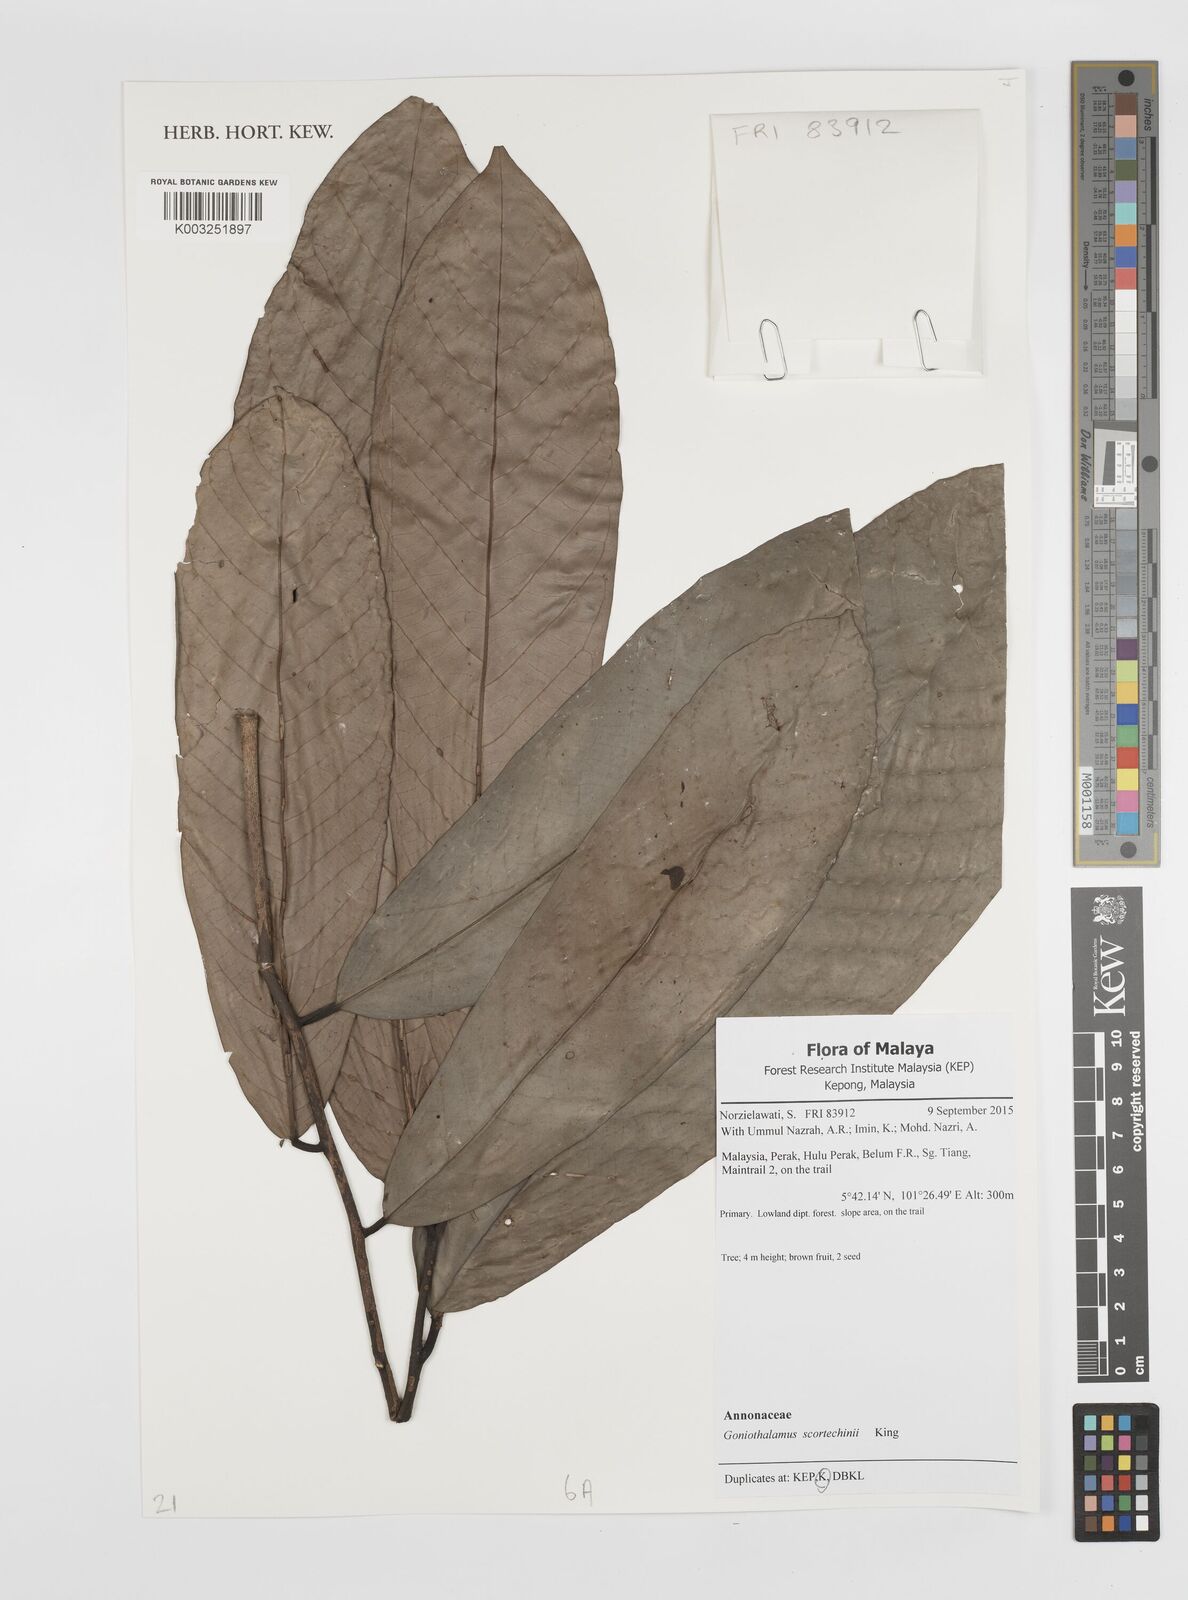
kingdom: Plantae
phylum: Tracheophyta
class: Magnoliopsida
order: Magnoliales
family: Annonaceae
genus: Goniothalamus
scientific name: Goniothalamus scortechinii
